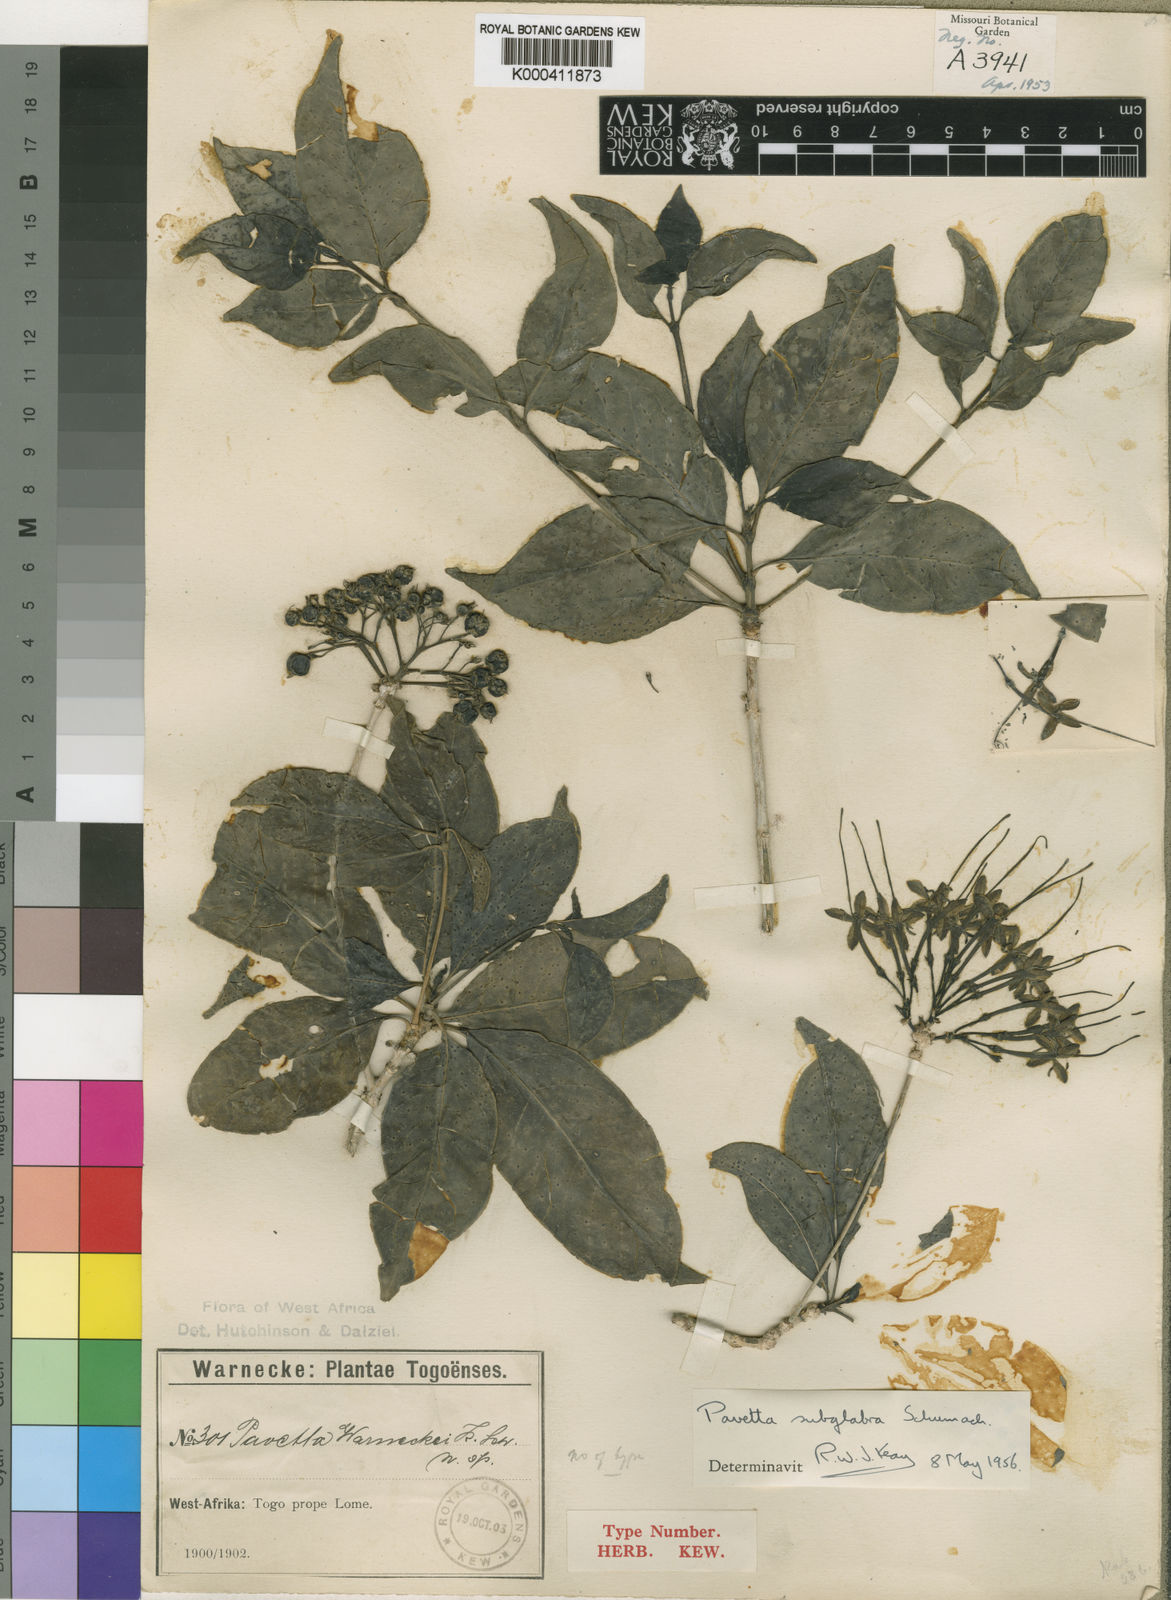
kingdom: Plantae
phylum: Tracheophyta
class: Magnoliopsida
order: Gentianales
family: Rubiaceae
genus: Pavetta
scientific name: Pavetta subglabra
